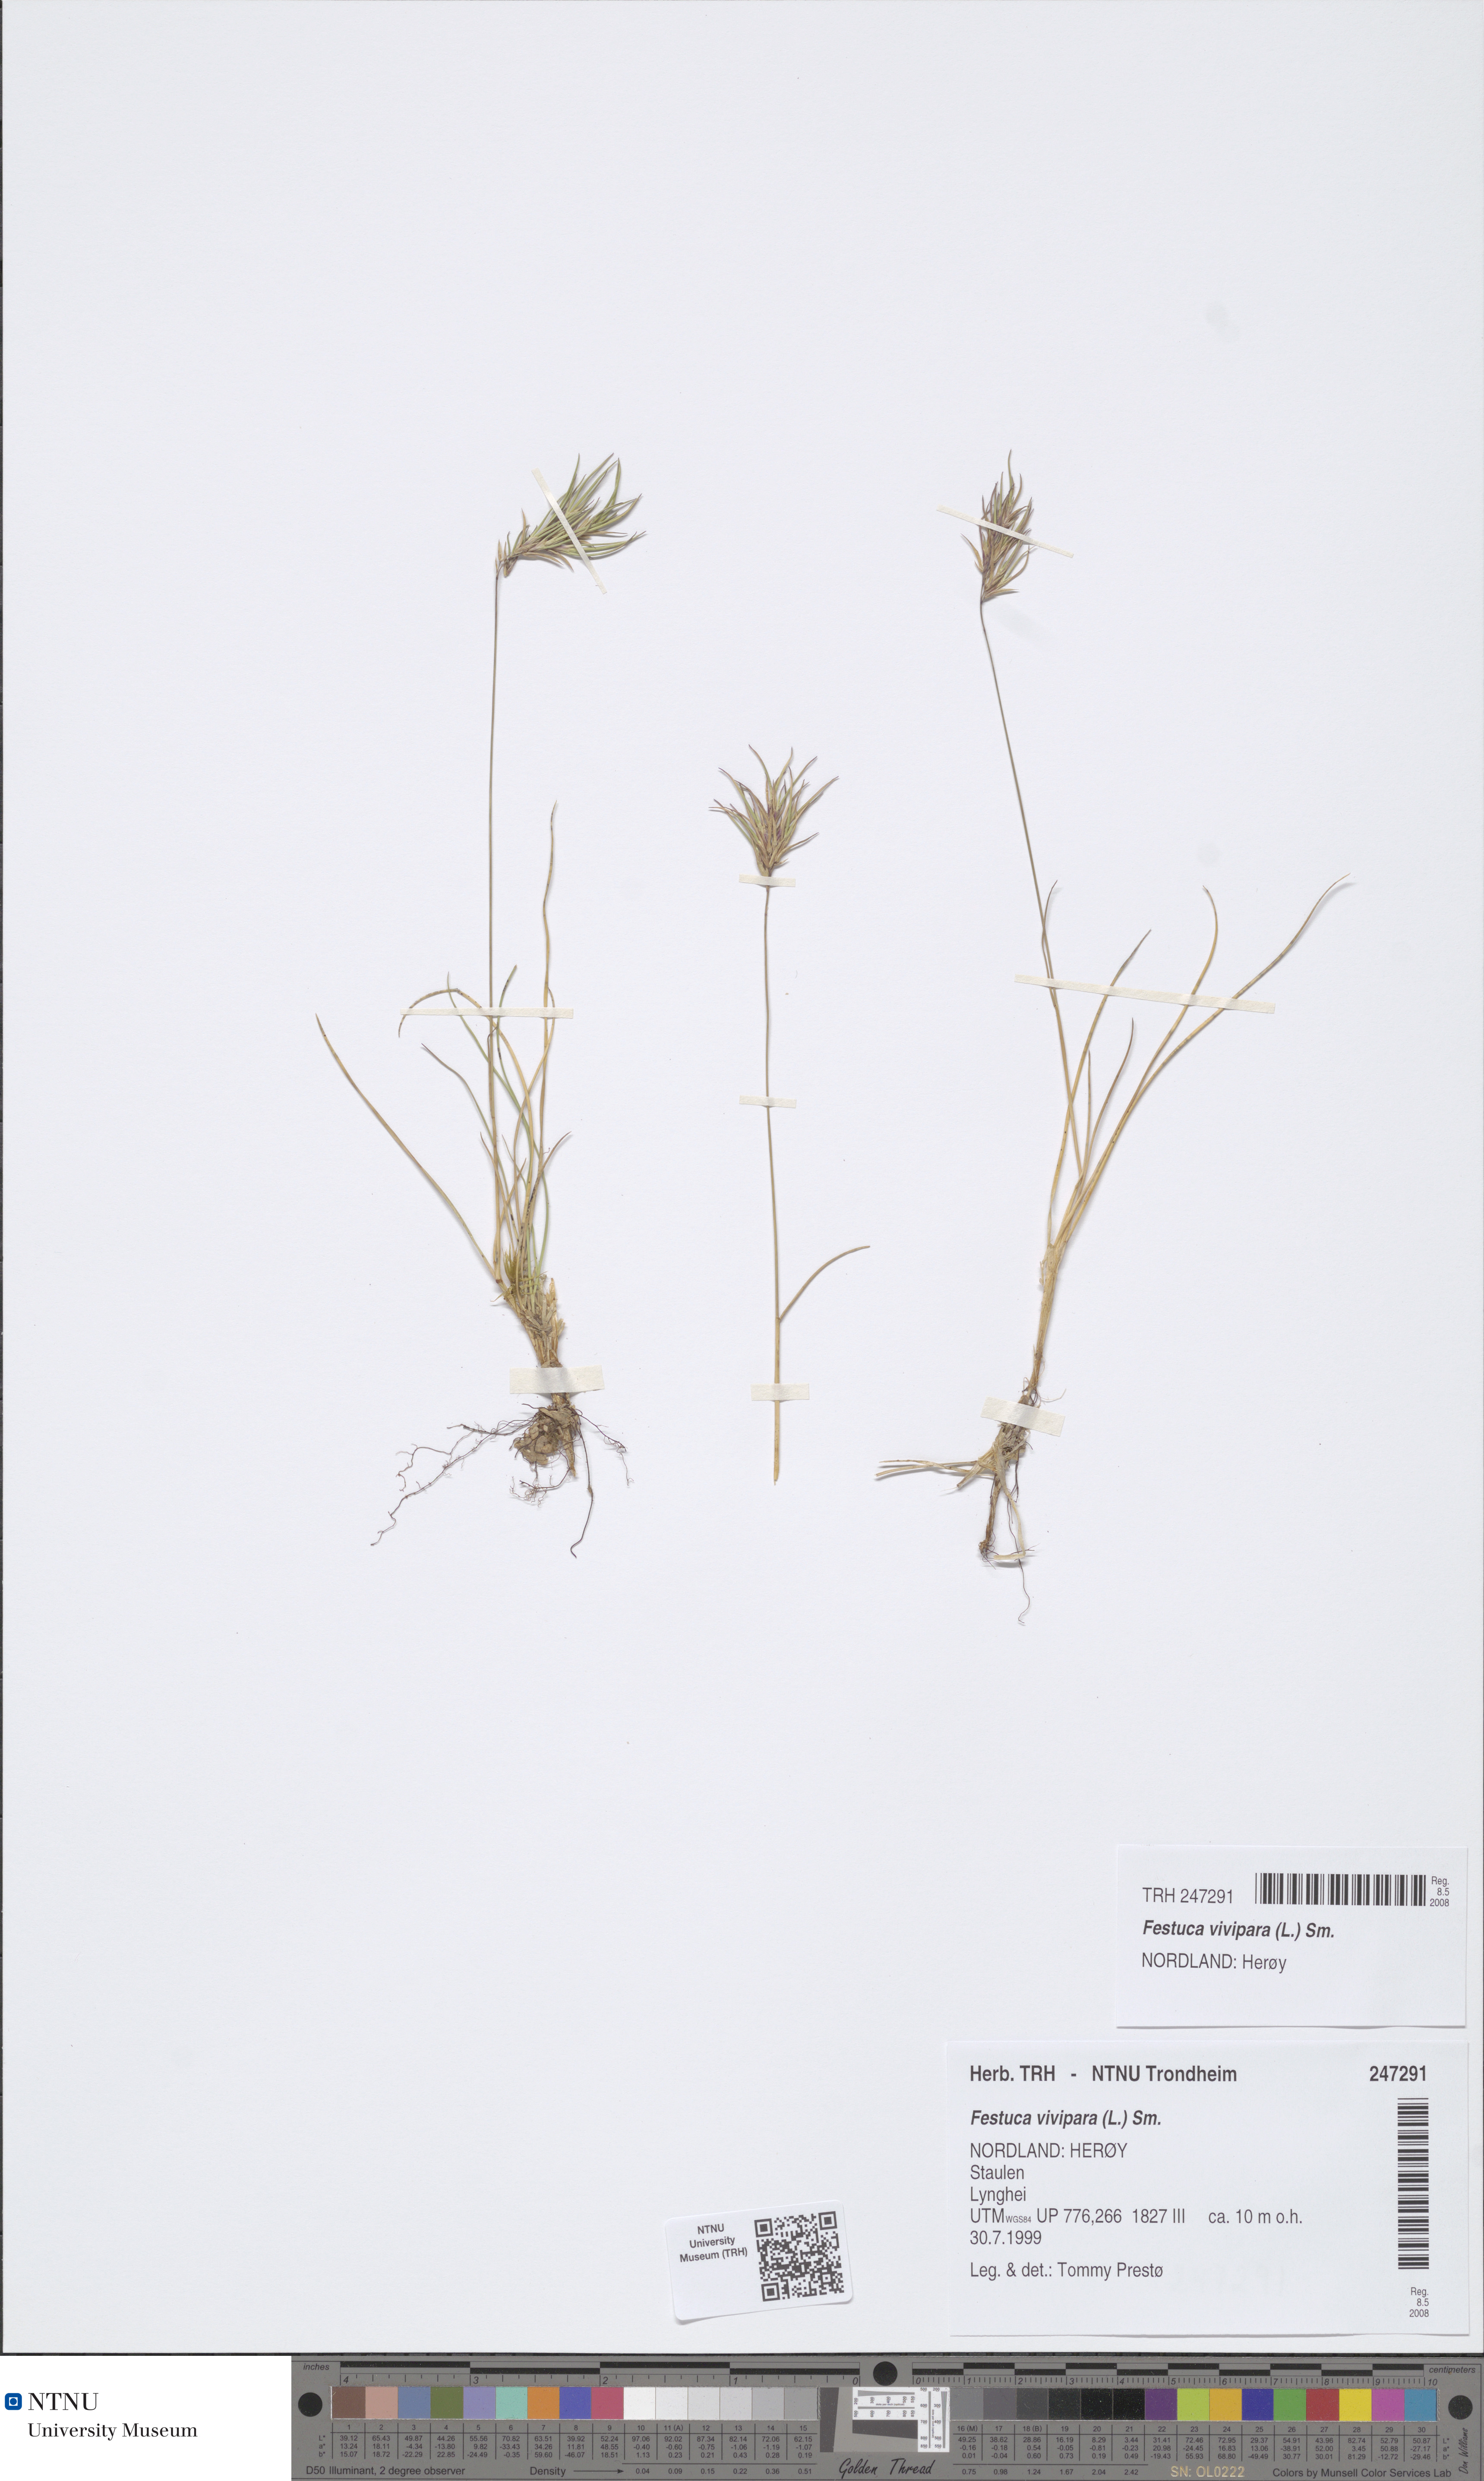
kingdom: Plantae
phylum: Tracheophyta
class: Liliopsida
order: Poales
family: Poaceae
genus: Festuca
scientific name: Festuca vivipara
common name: Viviparous sheep's-fescue
